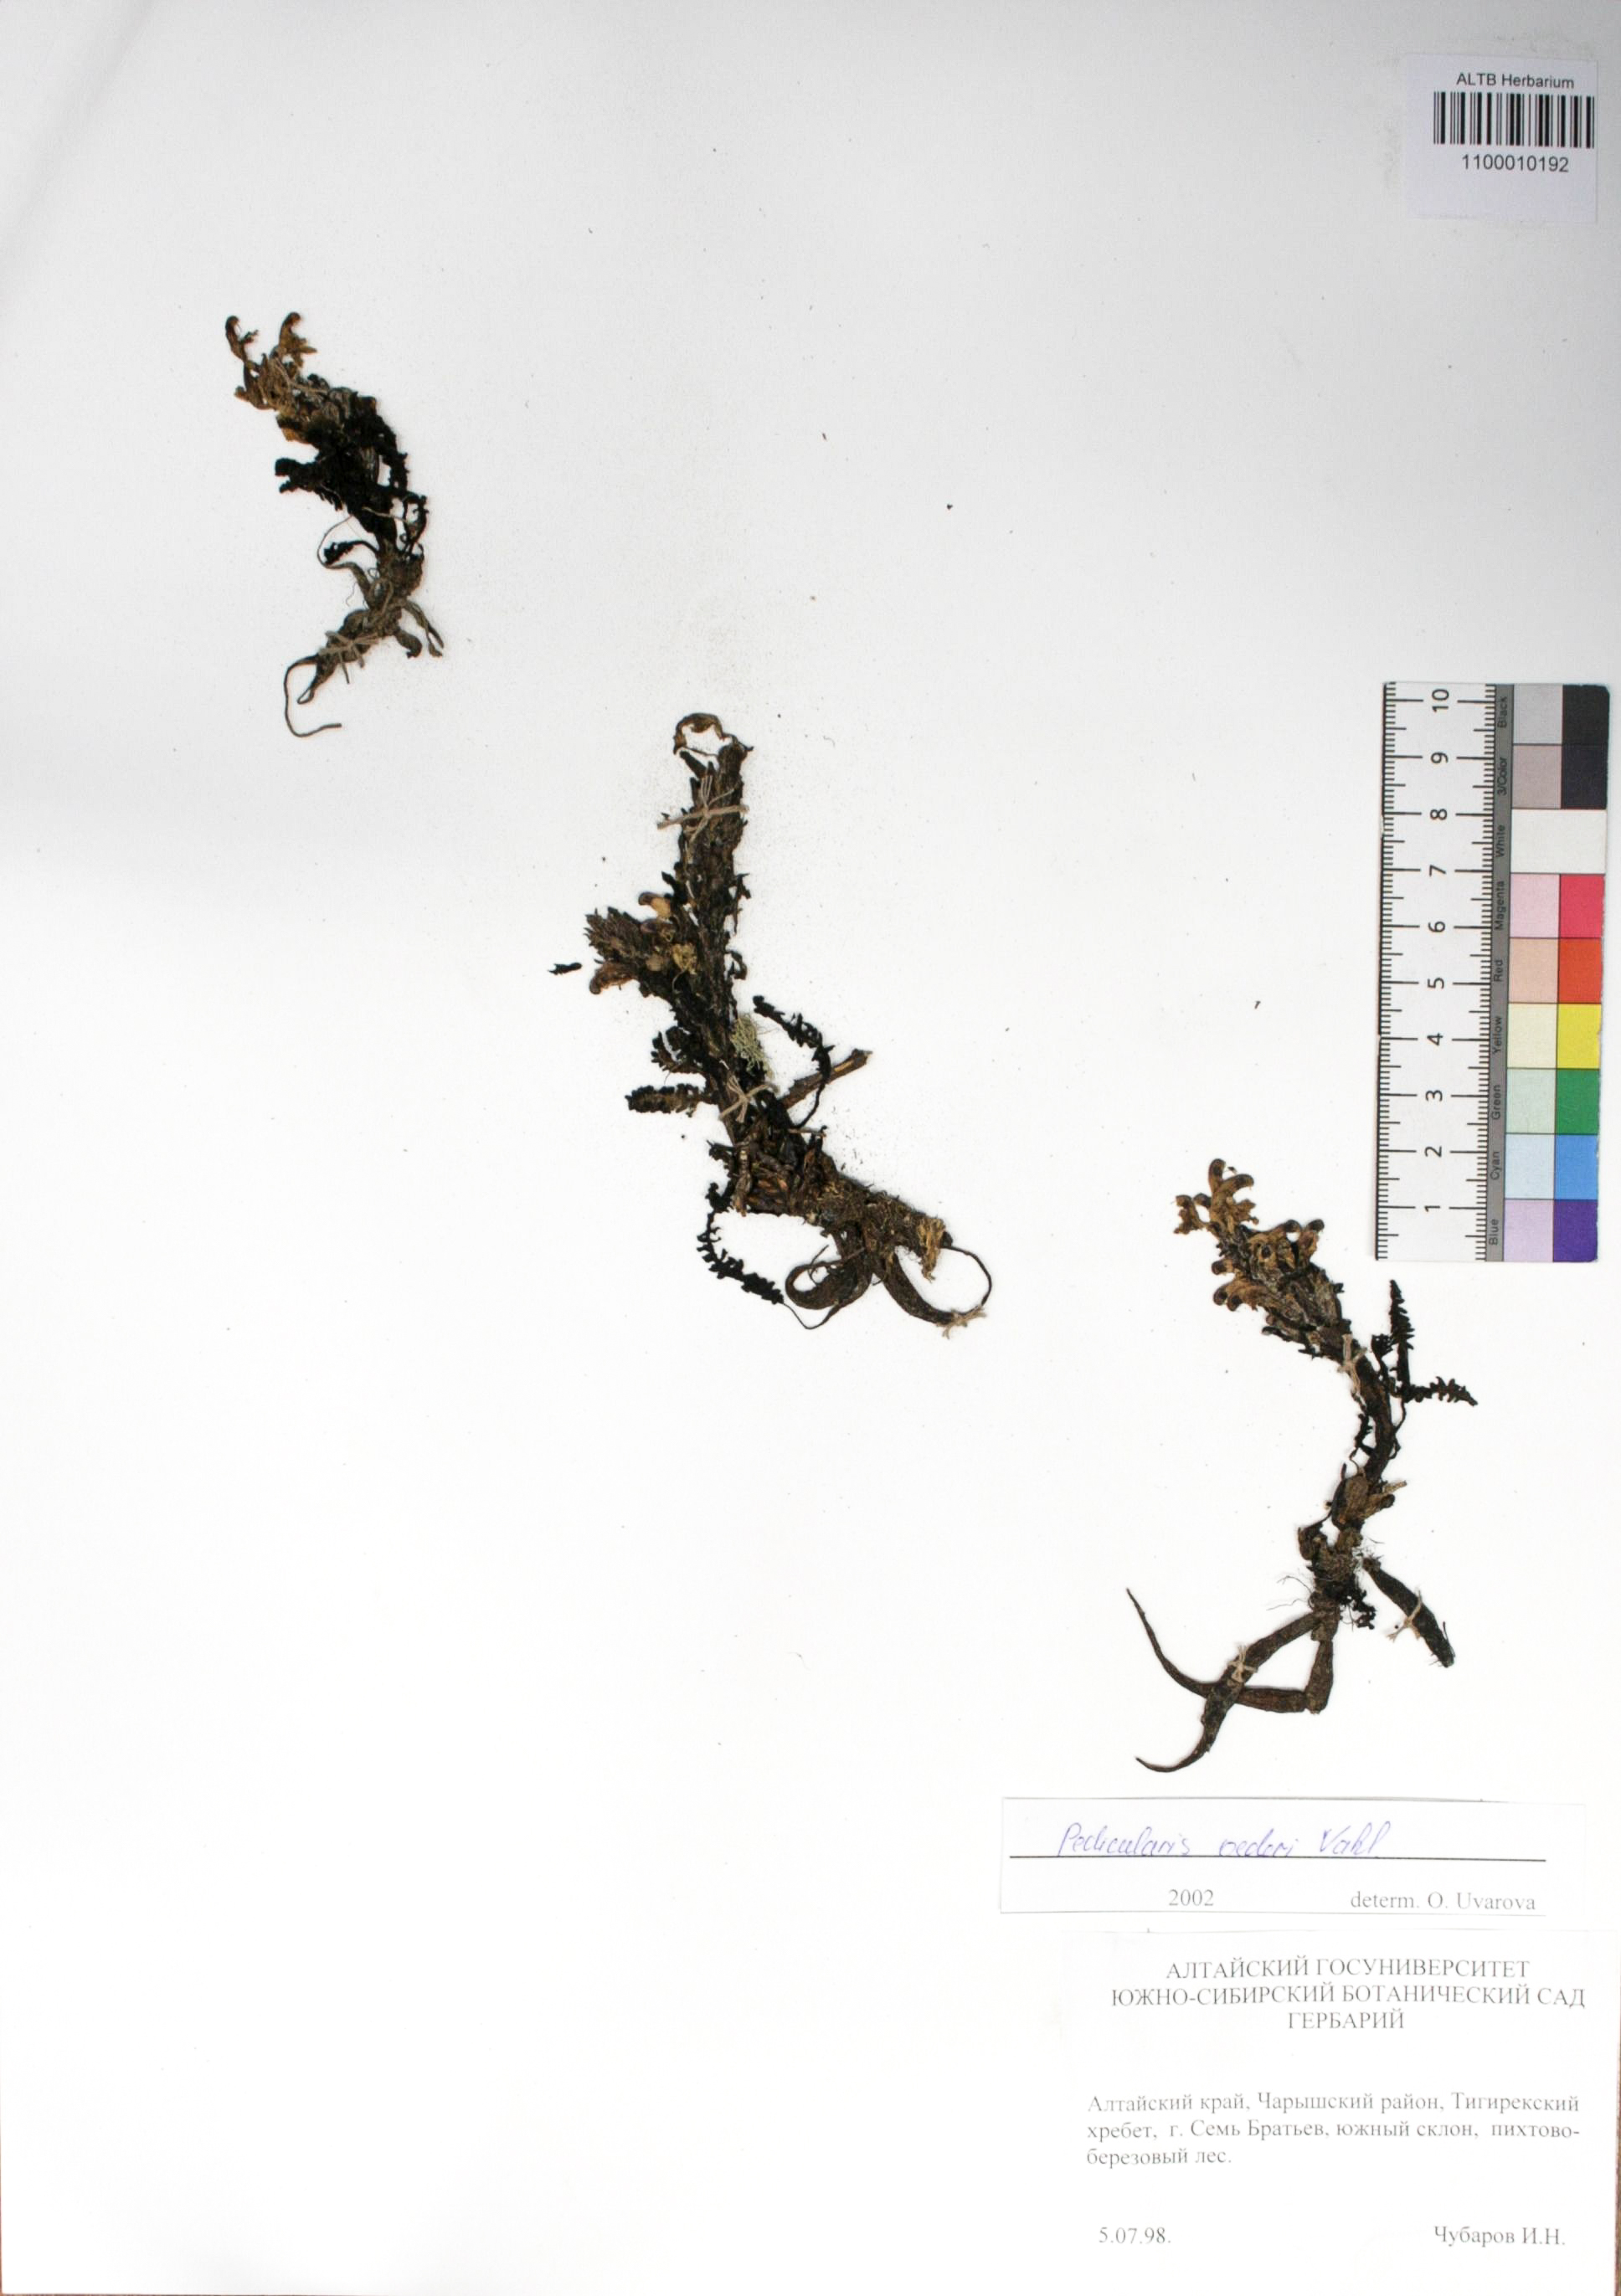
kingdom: Plantae
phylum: Tracheophyta
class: Magnoliopsida
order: Caryophyllales
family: Caryophyllaceae
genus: Silene
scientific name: Silene graminifolia
